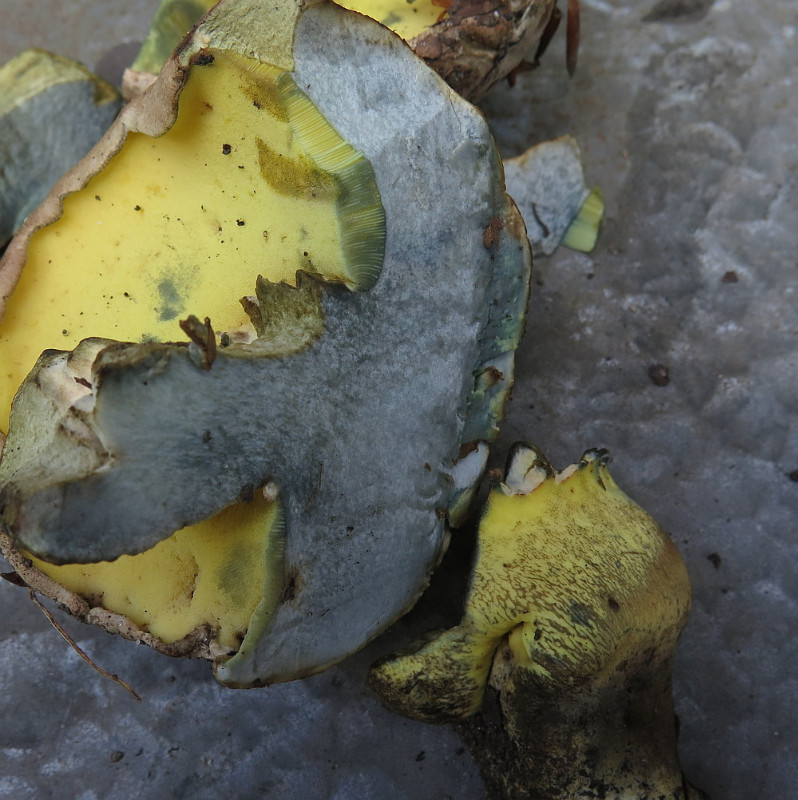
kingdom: Fungi
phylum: Basidiomycota
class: Agaricomycetes
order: Boletales
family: Boletaceae
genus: Caloboletus
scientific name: Caloboletus radicans
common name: rod-rørhat
